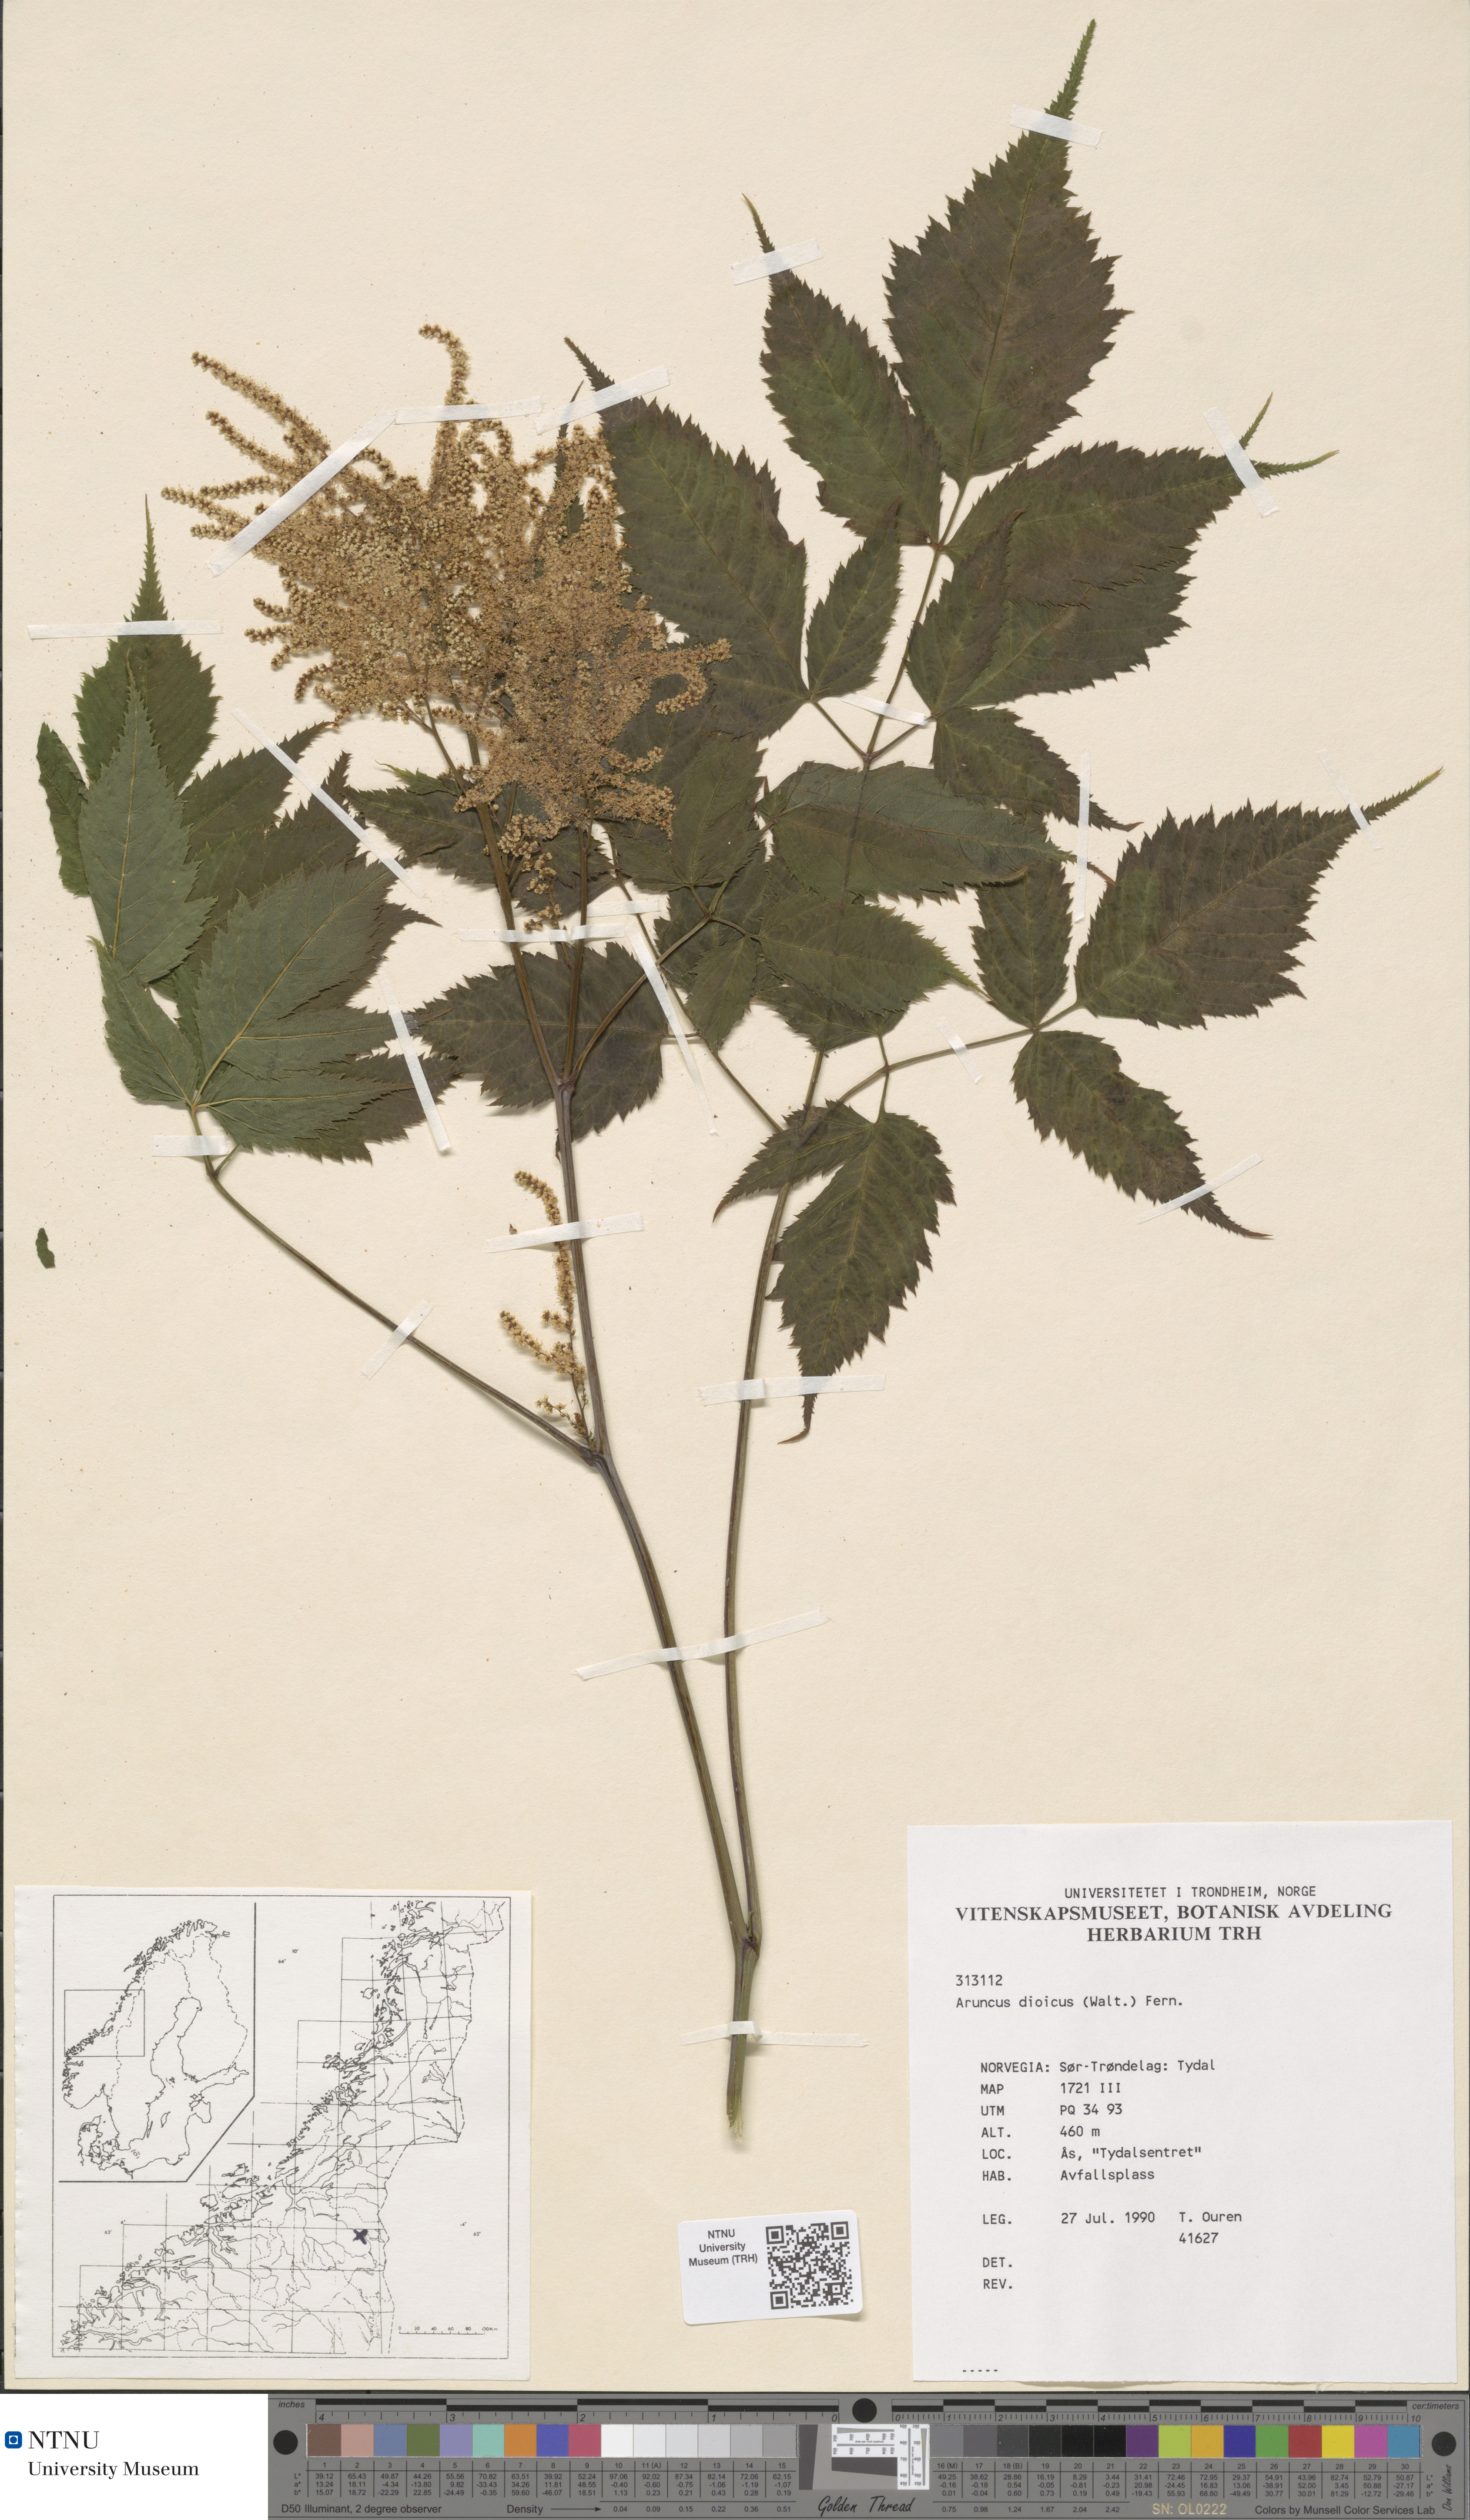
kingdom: Plantae
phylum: Tracheophyta
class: Magnoliopsida
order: Rosales
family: Rosaceae
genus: Aruncus
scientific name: Aruncus dioicus
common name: Buck's-beard
